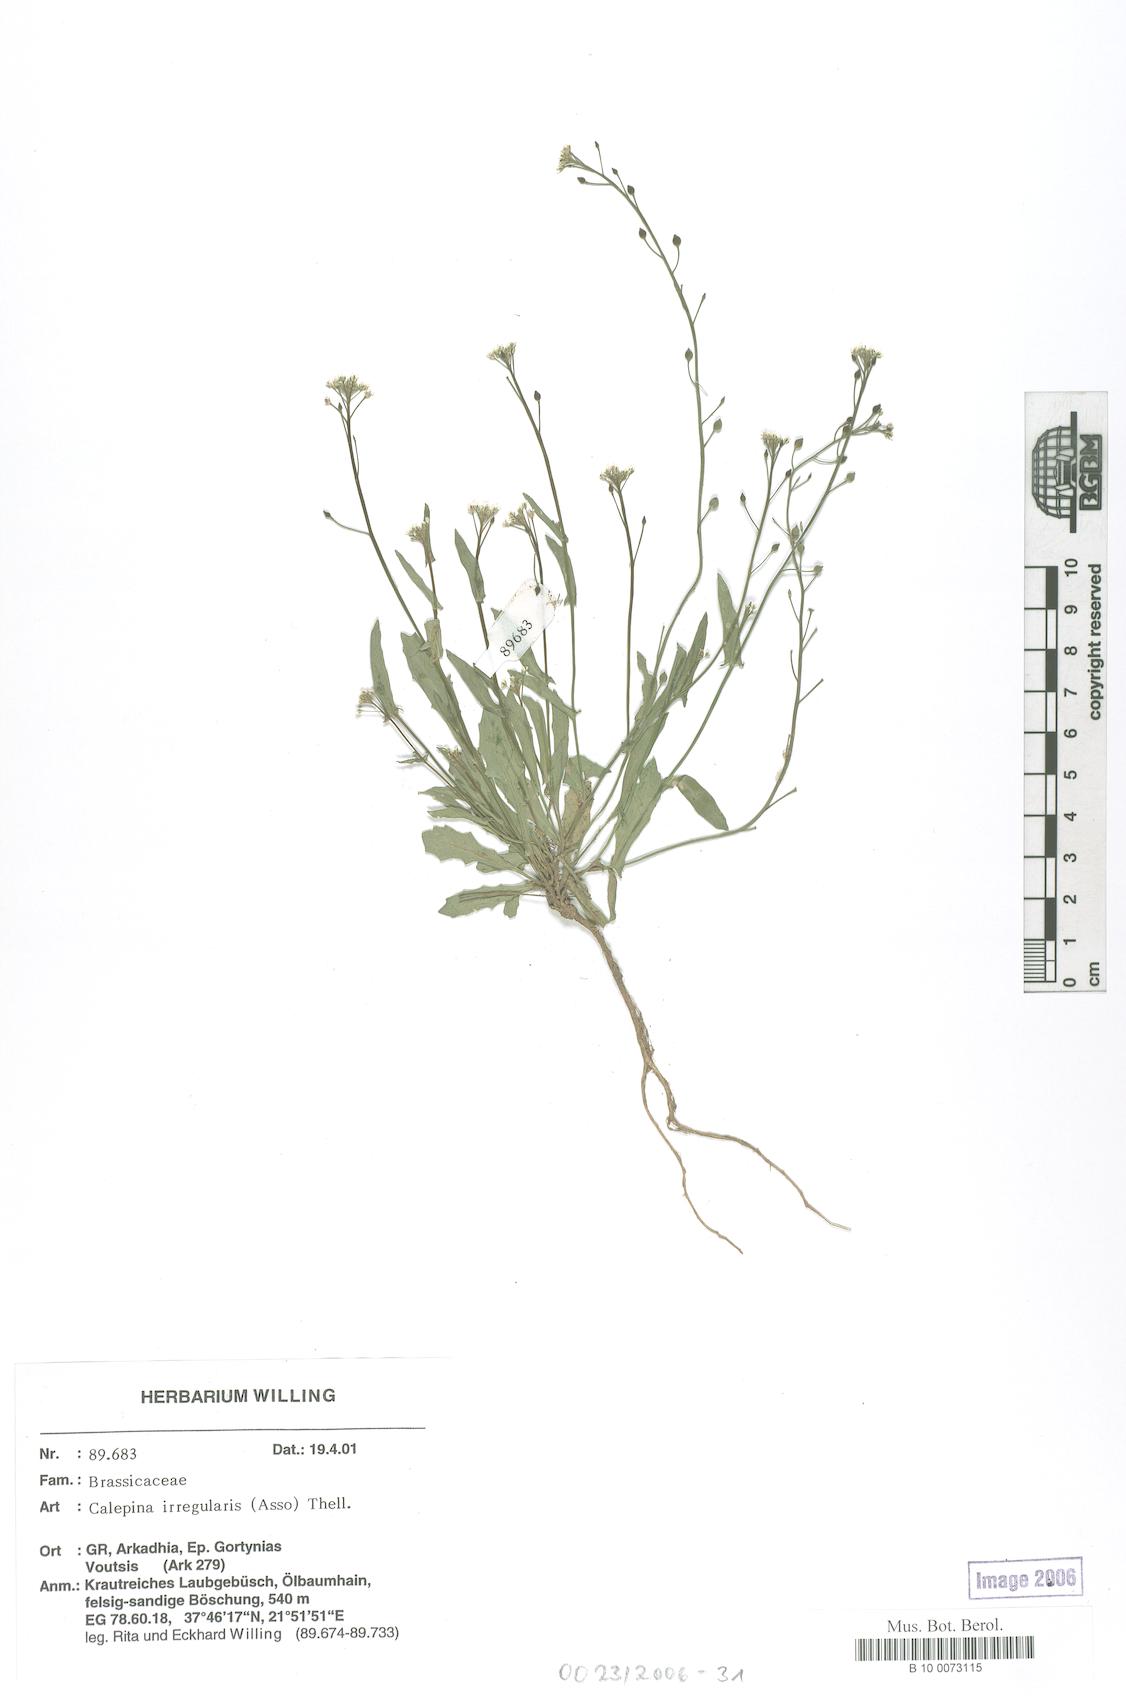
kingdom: Plantae
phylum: Tracheophyta
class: Magnoliopsida
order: Brassicales
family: Brassicaceae
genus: Calepina
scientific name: Calepina irregularis
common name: White ballmustard
